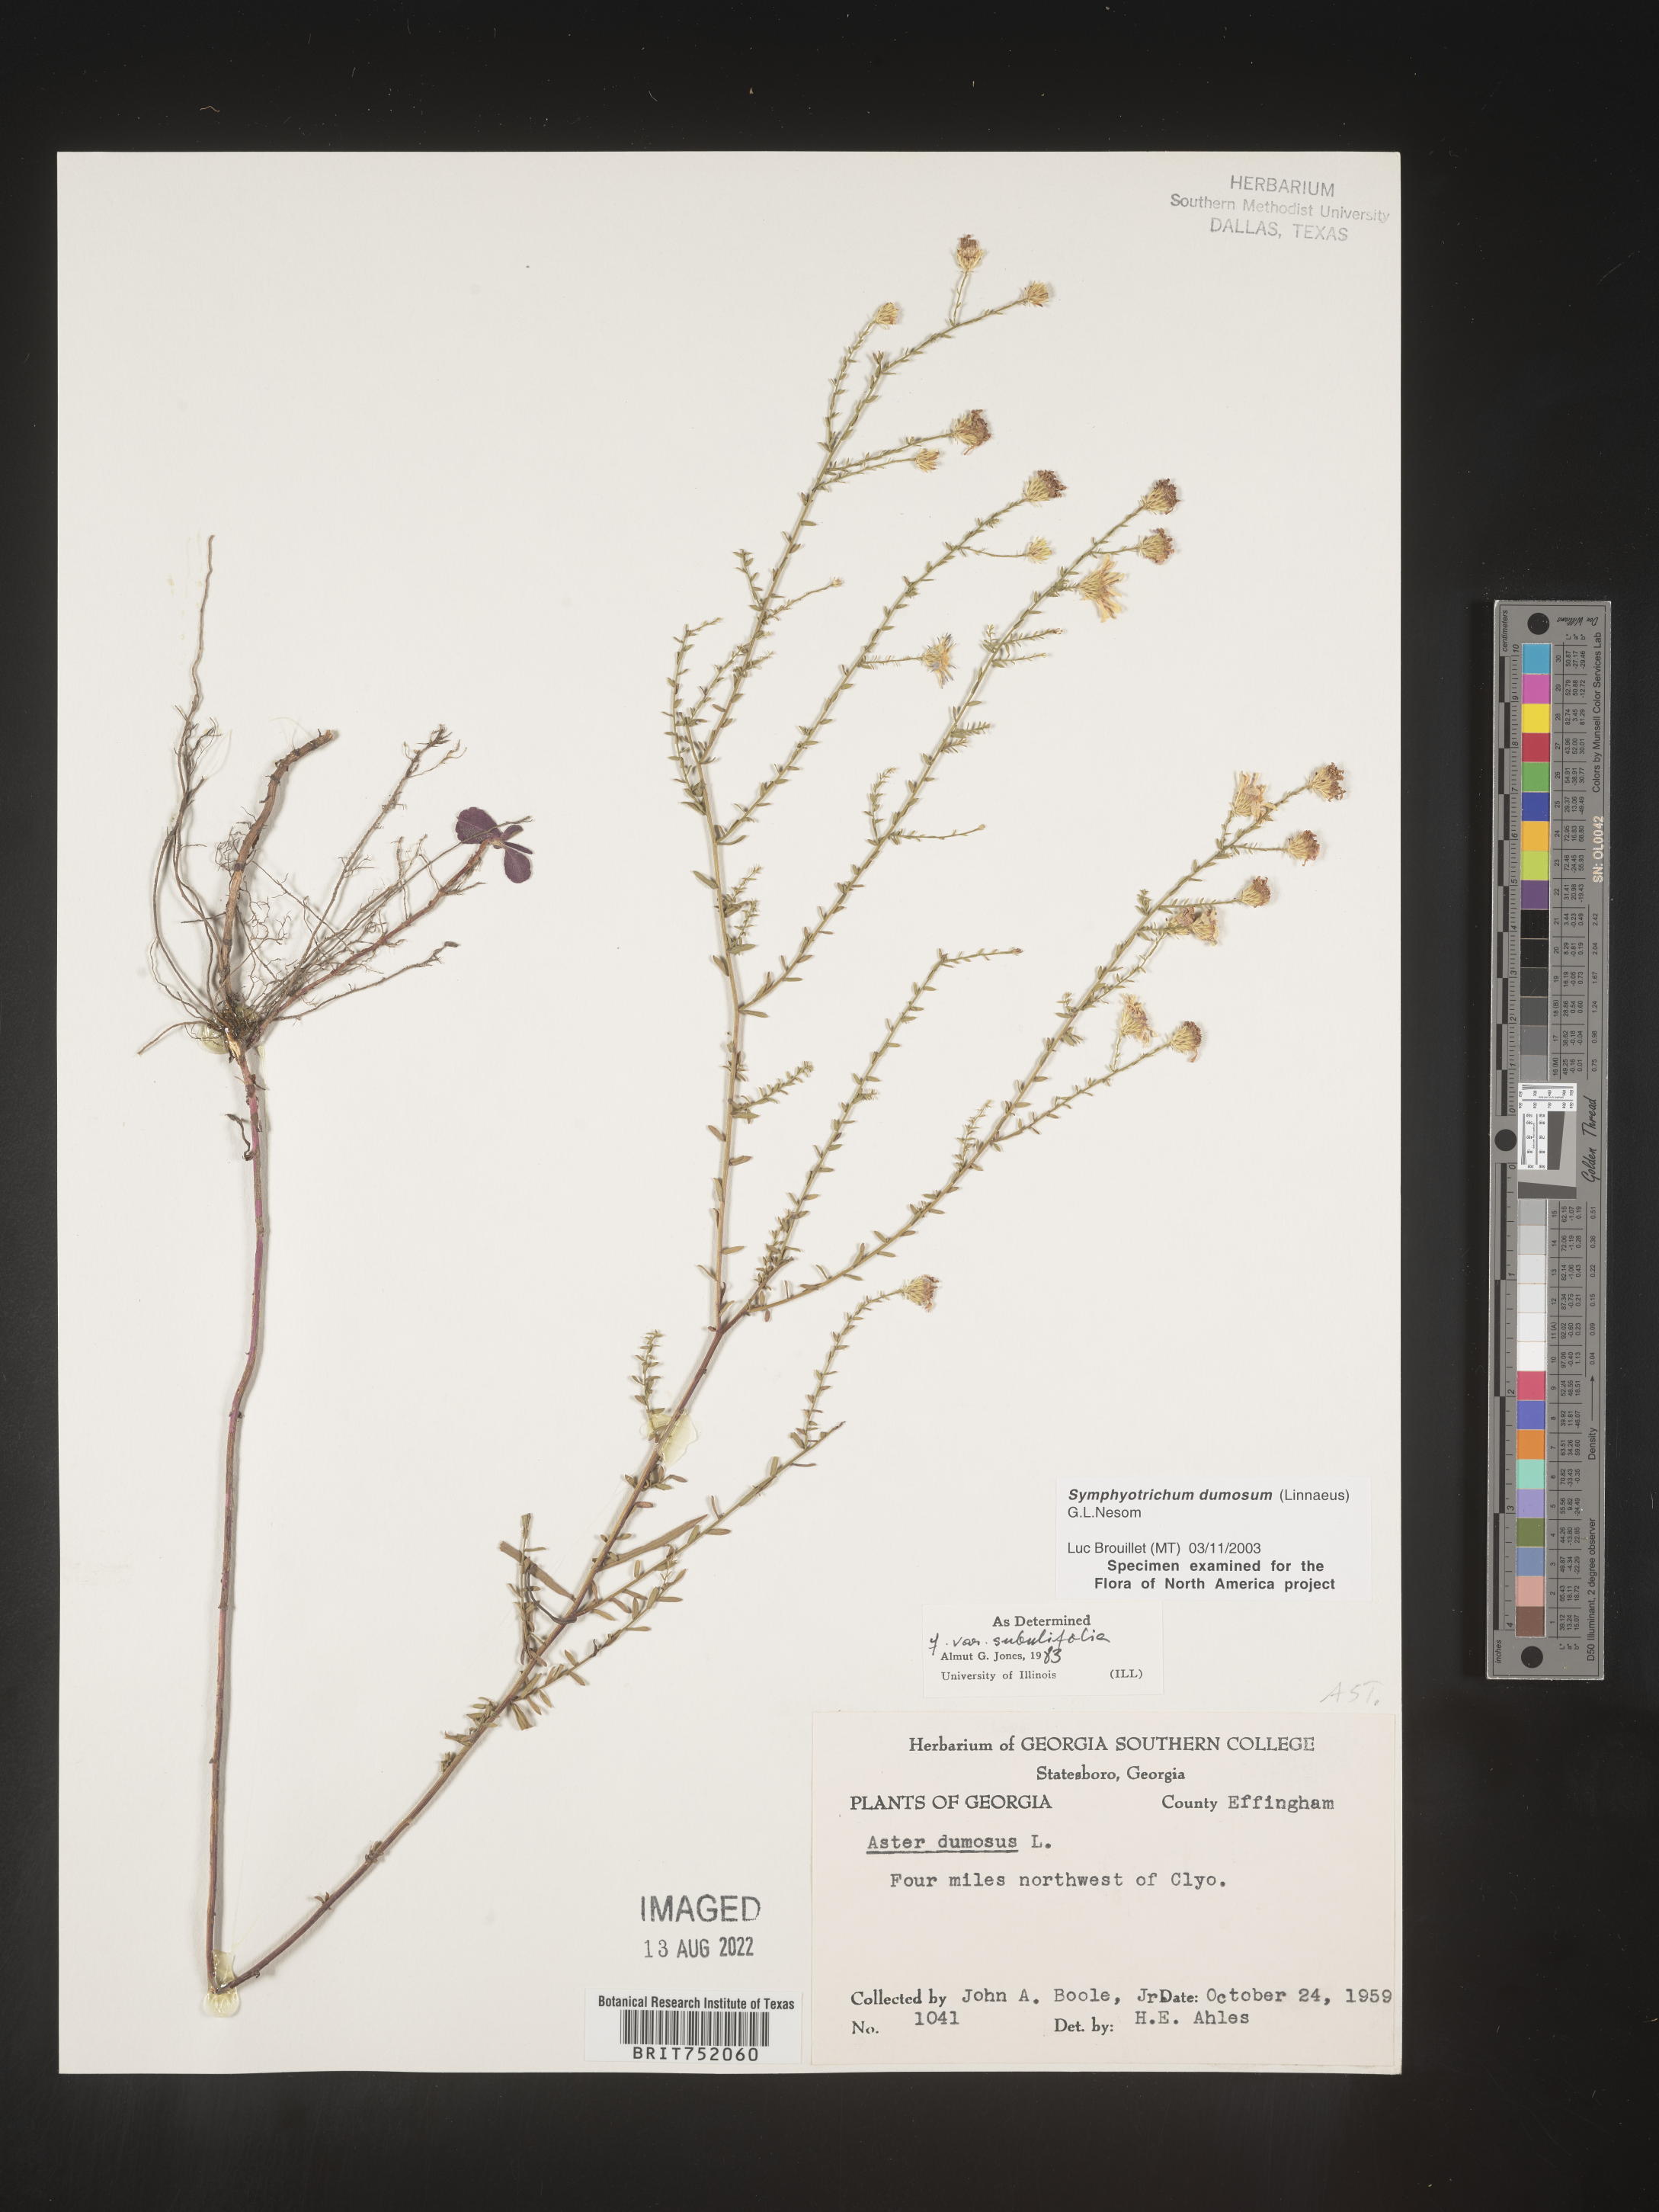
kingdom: Plantae
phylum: Tracheophyta
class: Magnoliopsida
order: Asterales
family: Asteraceae
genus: Symphyotrichum
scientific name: Symphyotrichum dumosum
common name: Bushy aster
